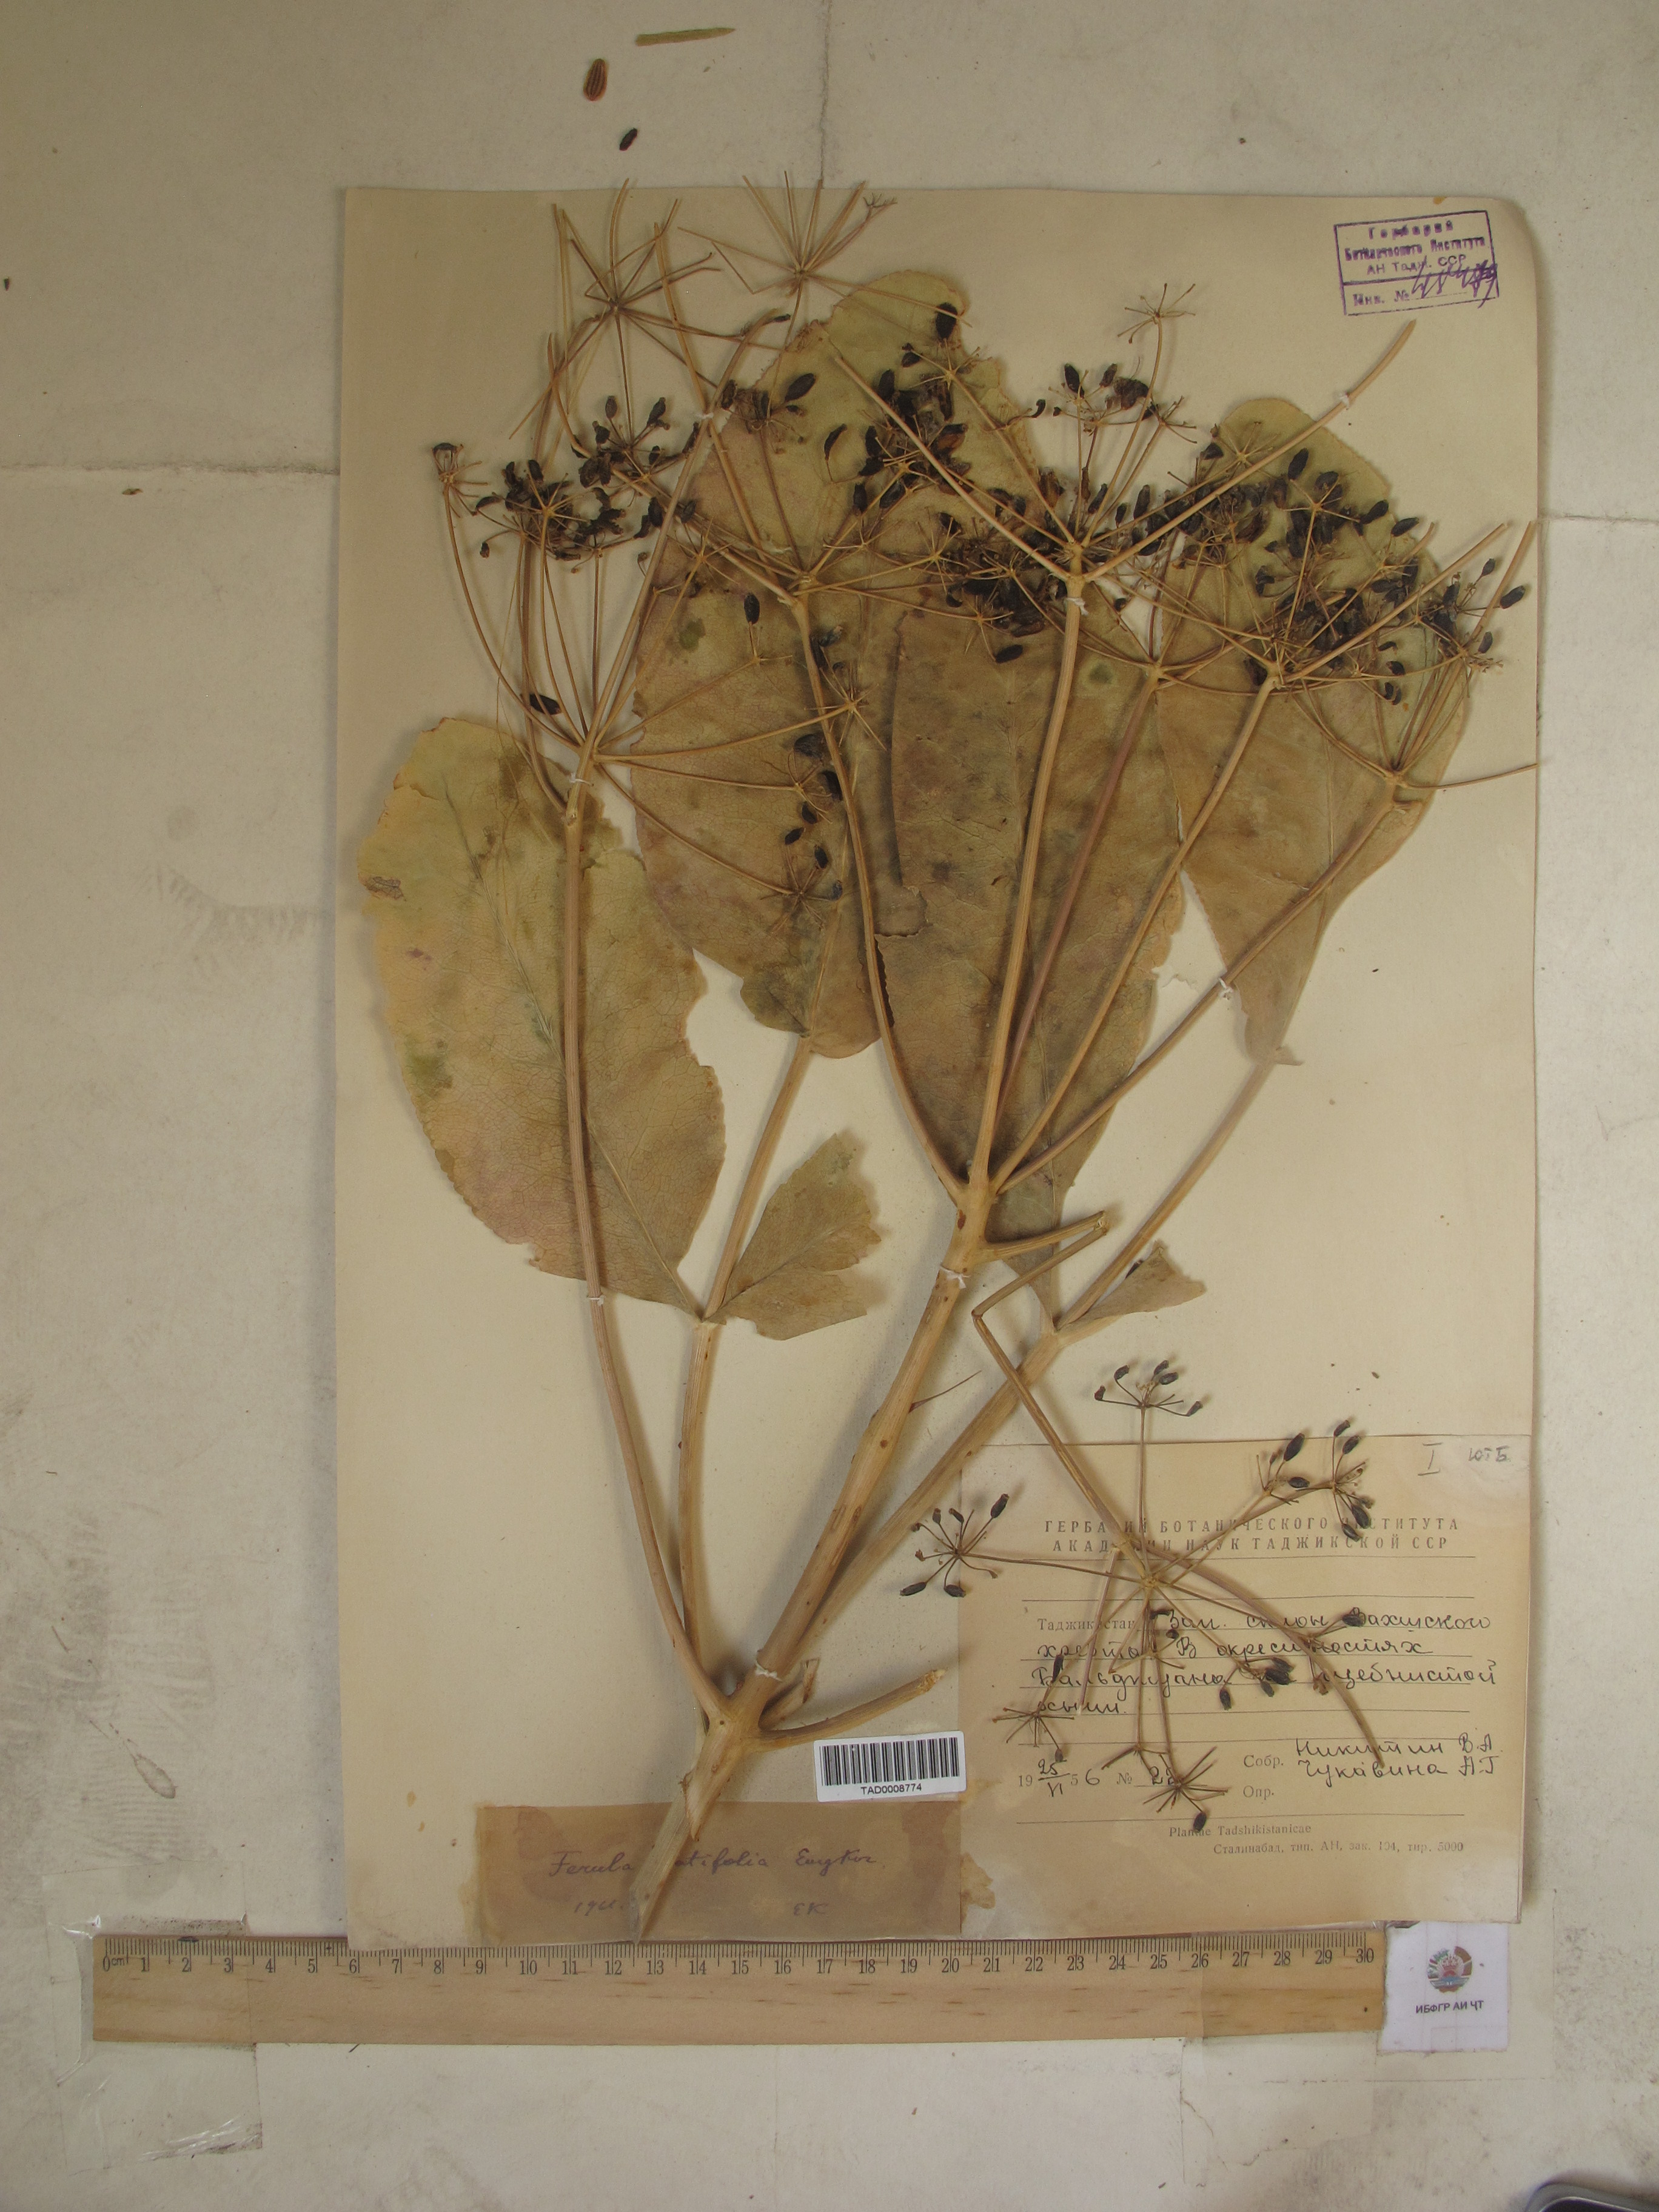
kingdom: Plantae
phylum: Tracheophyta
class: Magnoliopsida
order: Apiales
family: Apiaceae
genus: Ferula
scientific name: Ferula clematidifolia
